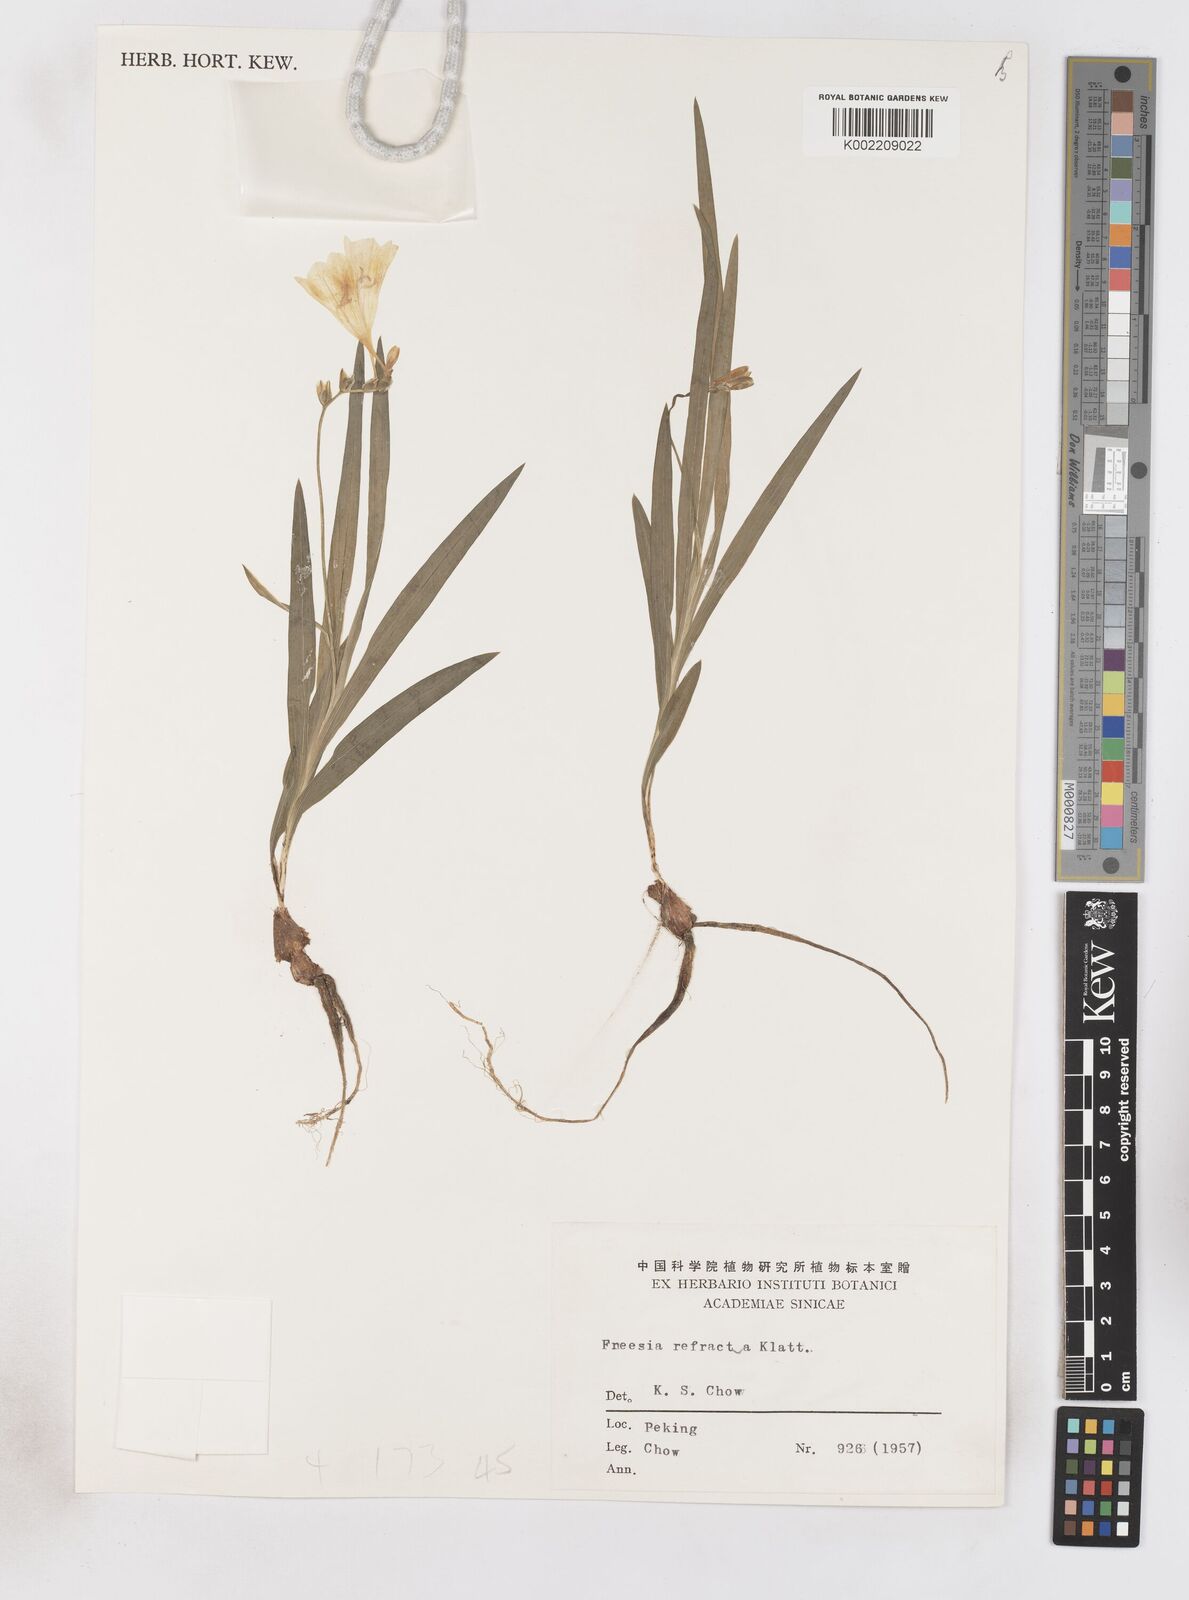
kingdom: Plantae
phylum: Tracheophyta
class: Liliopsida
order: Asparagales
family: Iridaceae
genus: Freesia
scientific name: Freesia refracta
